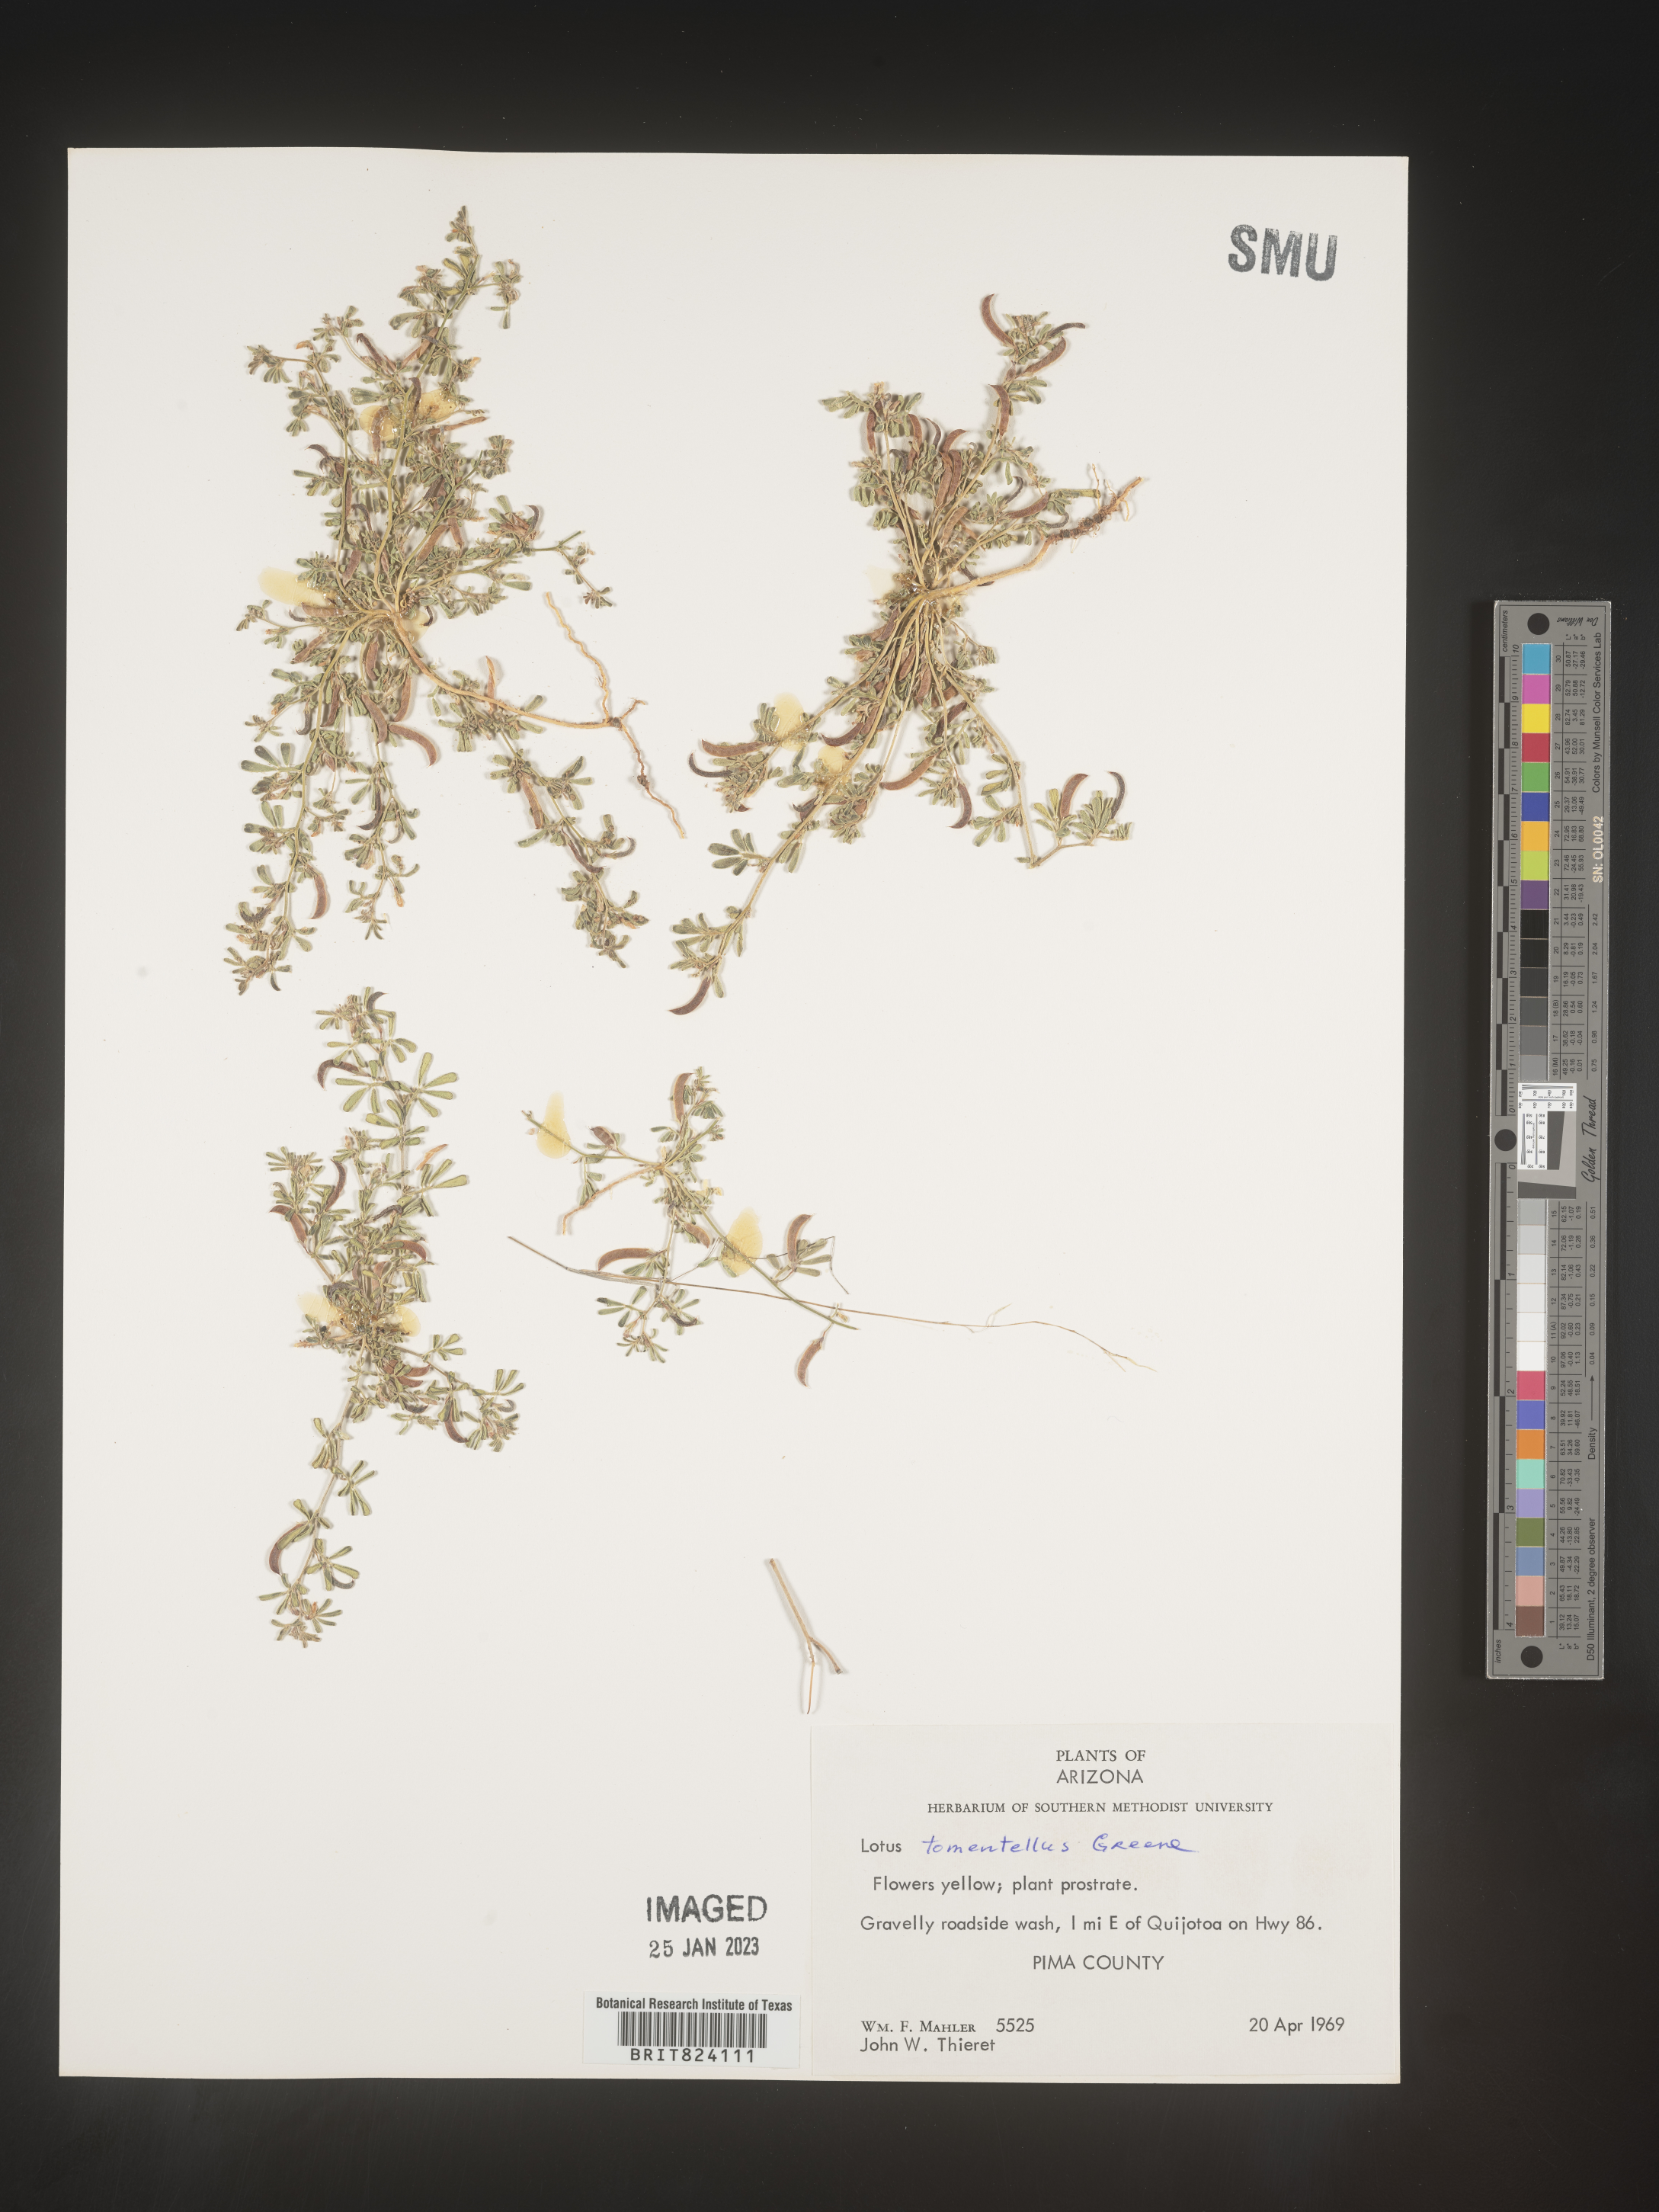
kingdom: Plantae
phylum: Tracheophyta
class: Magnoliopsida
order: Fabales
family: Fabaceae
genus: Acmispon
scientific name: Acmispon intricatus
